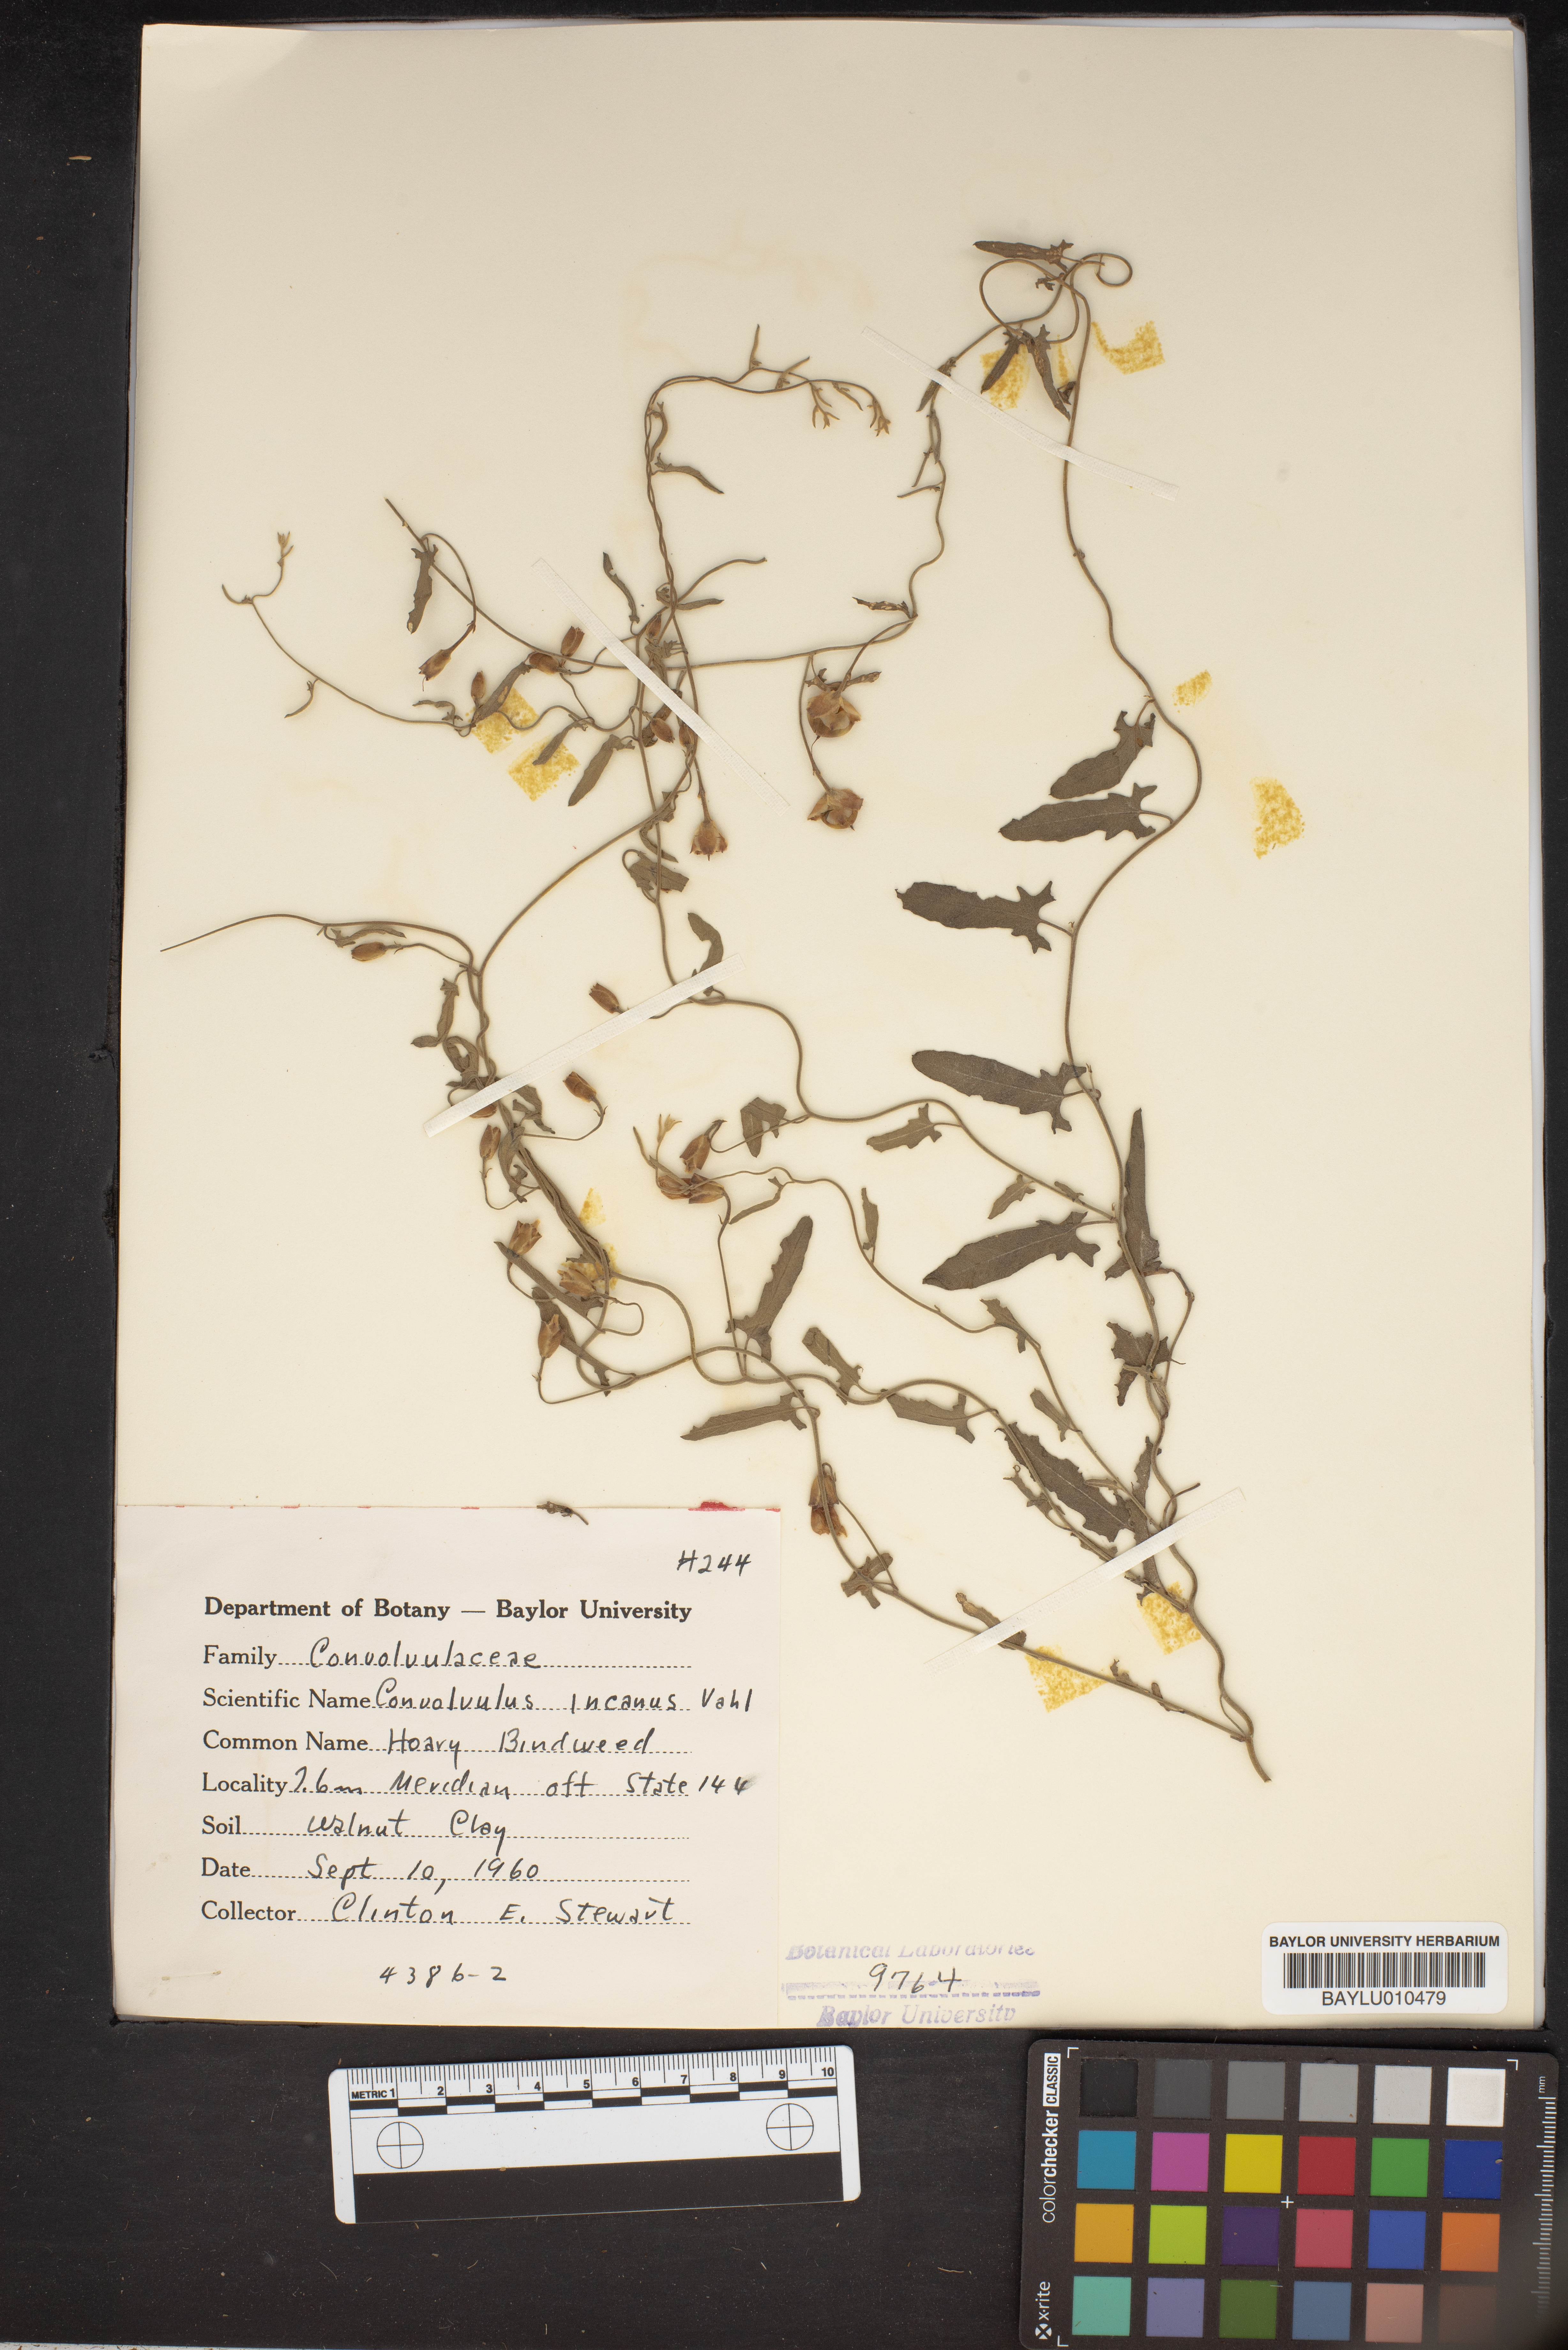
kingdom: Plantae
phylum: Tracheophyta
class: Magnoliopsida
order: Solanales
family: Convolvulaceae
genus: Convolvulus
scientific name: Convolvulus hermanniae
